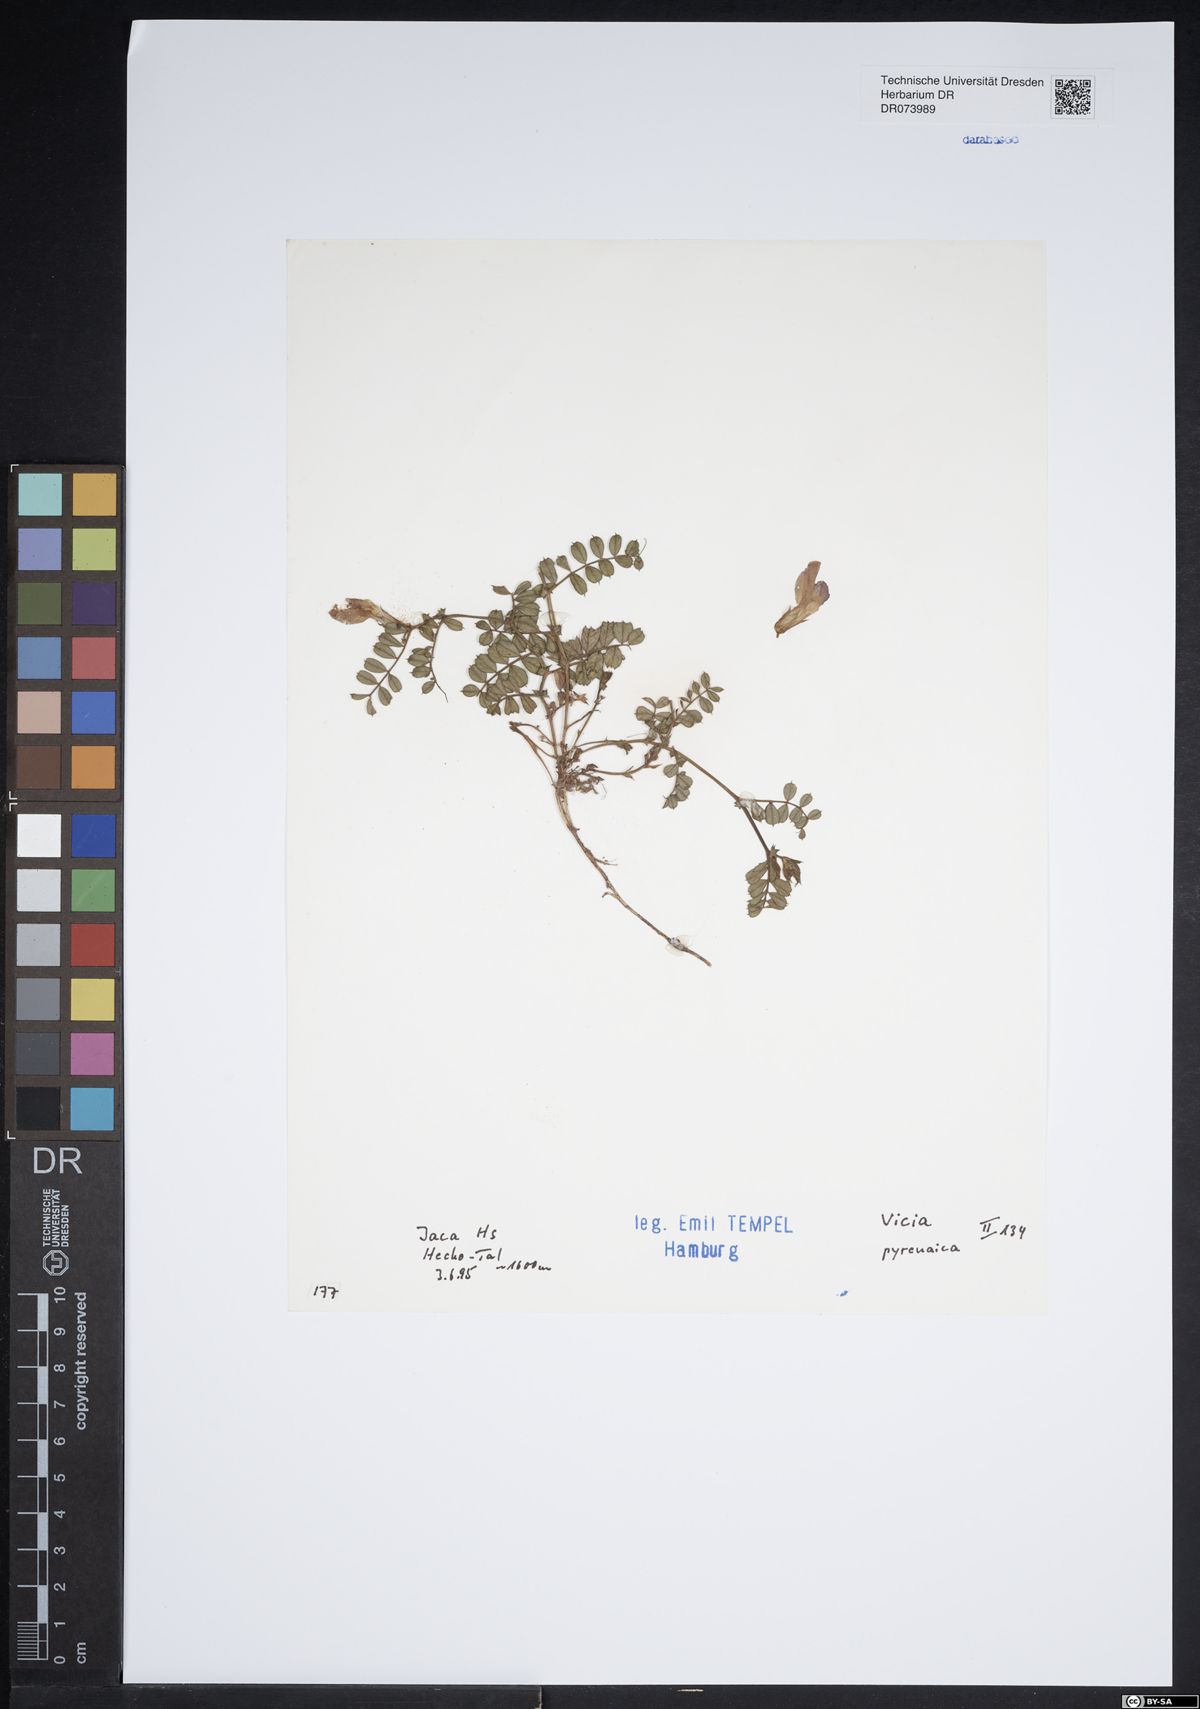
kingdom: Plantae
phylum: Tracheophyta
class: Magnoliopsida
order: Fabales
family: Fabaceae
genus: Vicia
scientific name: Vicia pyrenaica
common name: Pyrenean vetch
